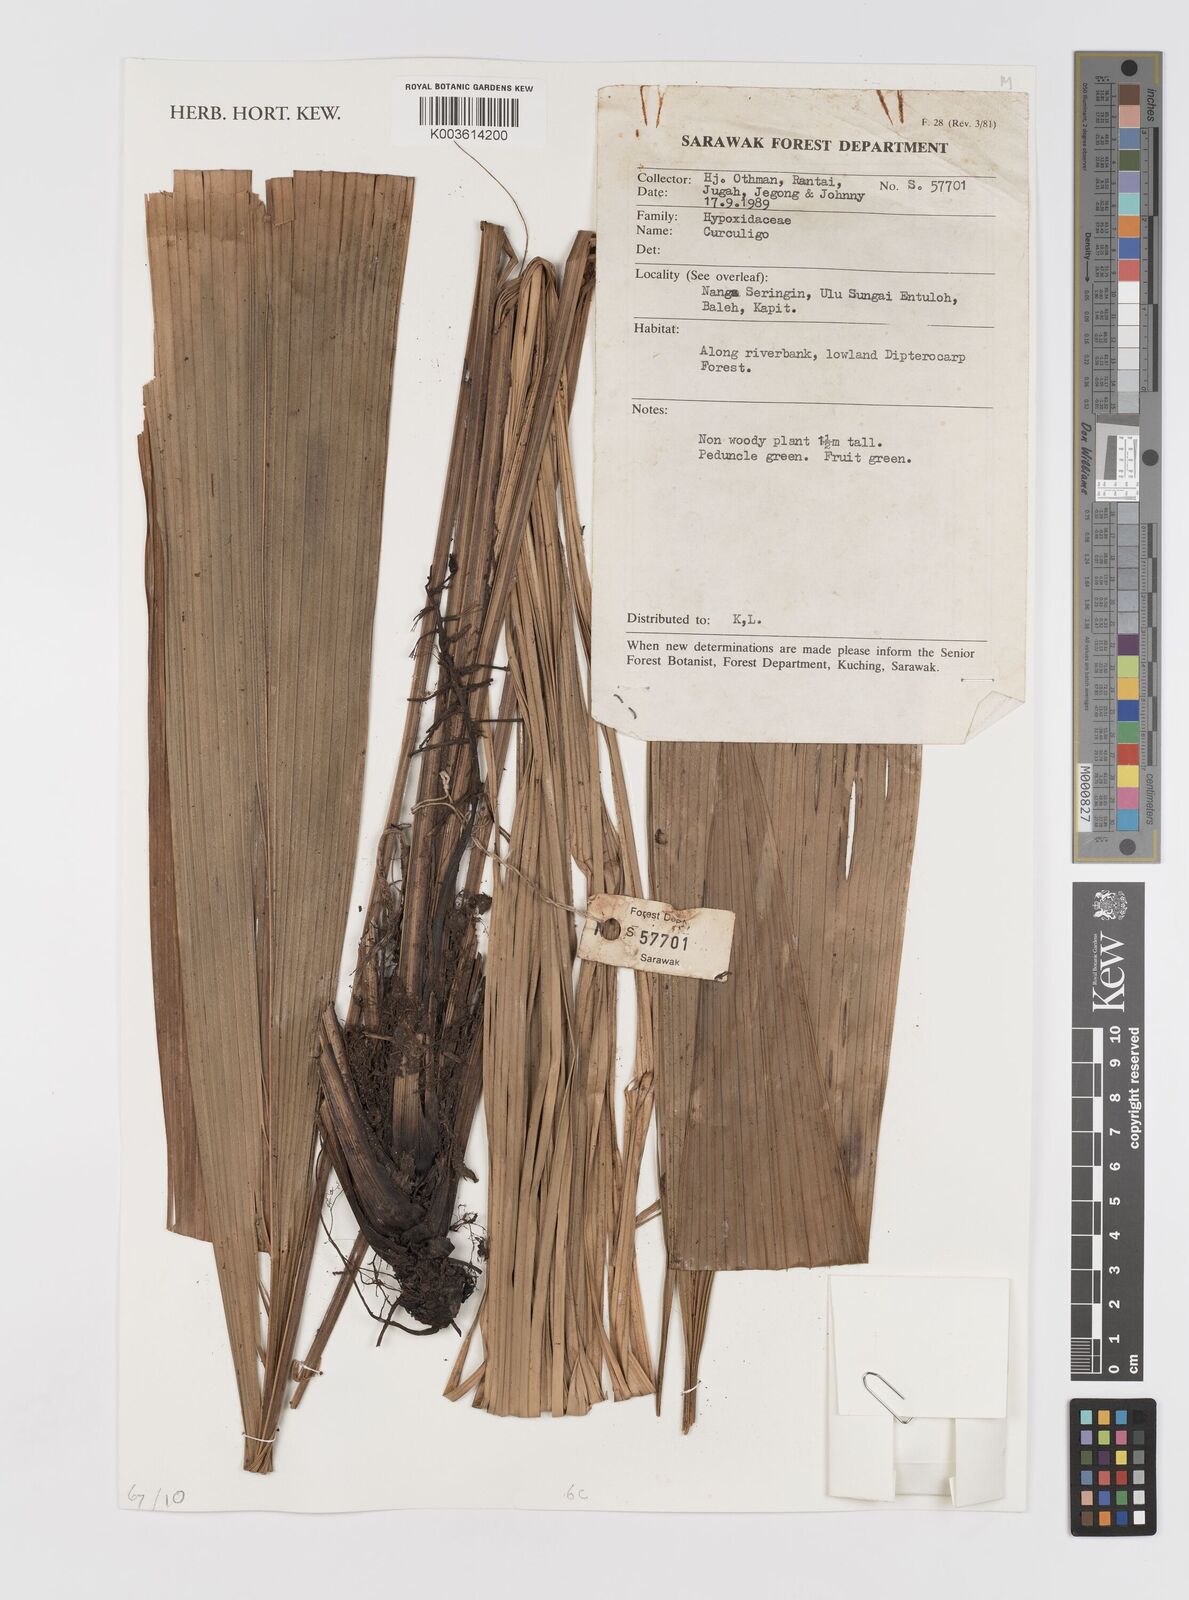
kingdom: Plantae
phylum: Tracheophyta
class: Liliopsida
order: Asparagales
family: Hypoxidaceae
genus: Curculigo
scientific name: Curculigo
